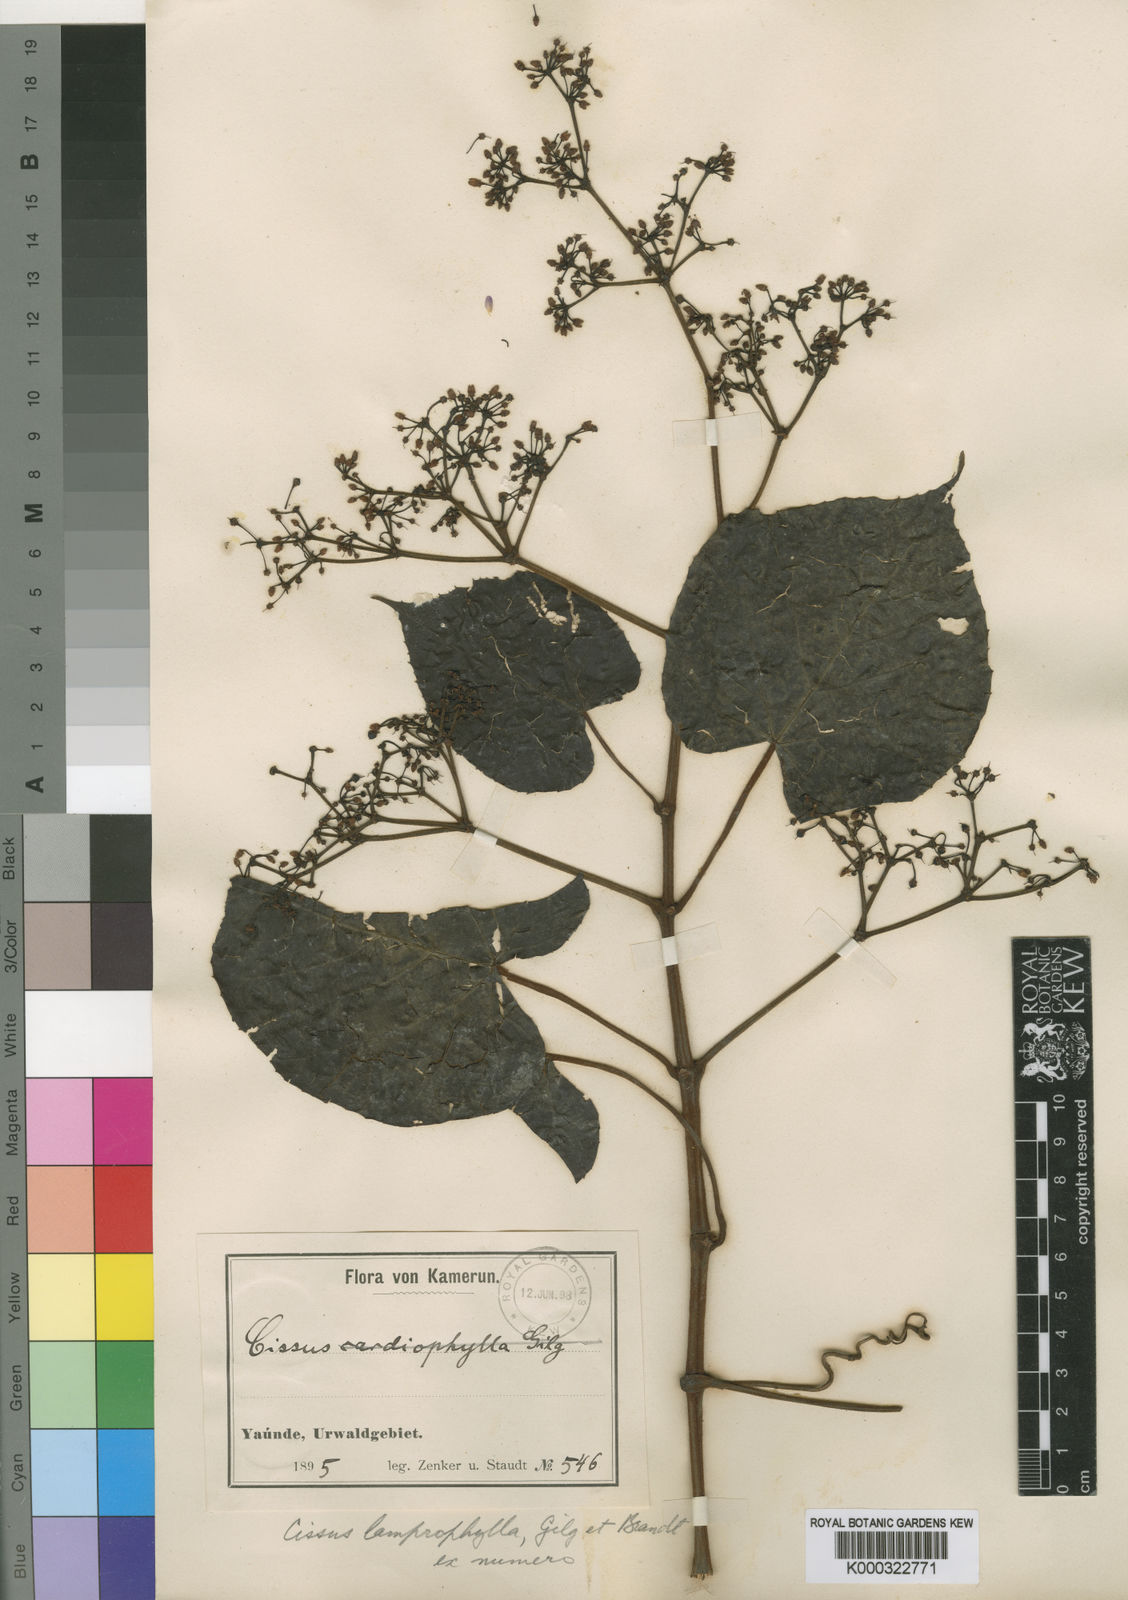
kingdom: Plantae
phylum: Tracheophyta
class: Magnoliopsida
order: Vitales
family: Vitaceae
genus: Cissus
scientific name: Cissus lamprophylla
